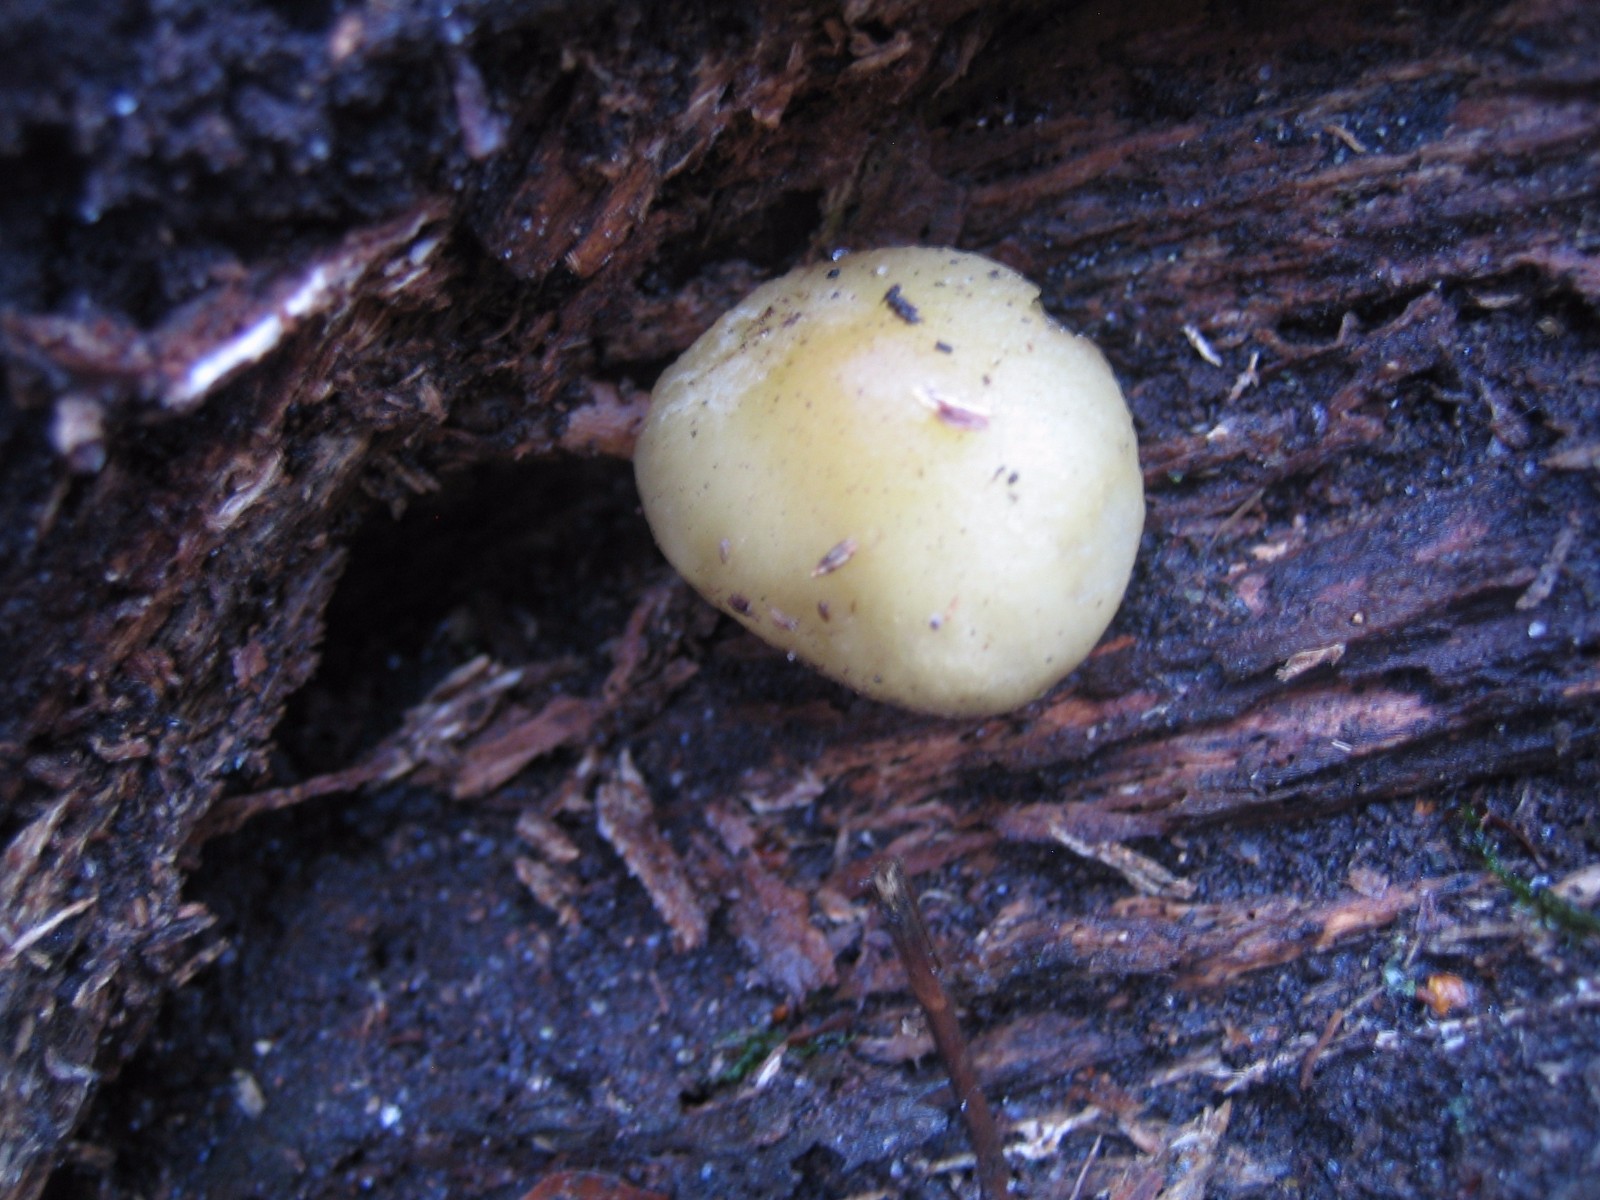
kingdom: Fungi
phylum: Basidiomycota
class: Agaricomycetes
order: Agaricales
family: Strophariaceae
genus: Hypholoma
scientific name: Hypholoma capnoides
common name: gran-svovlhat
